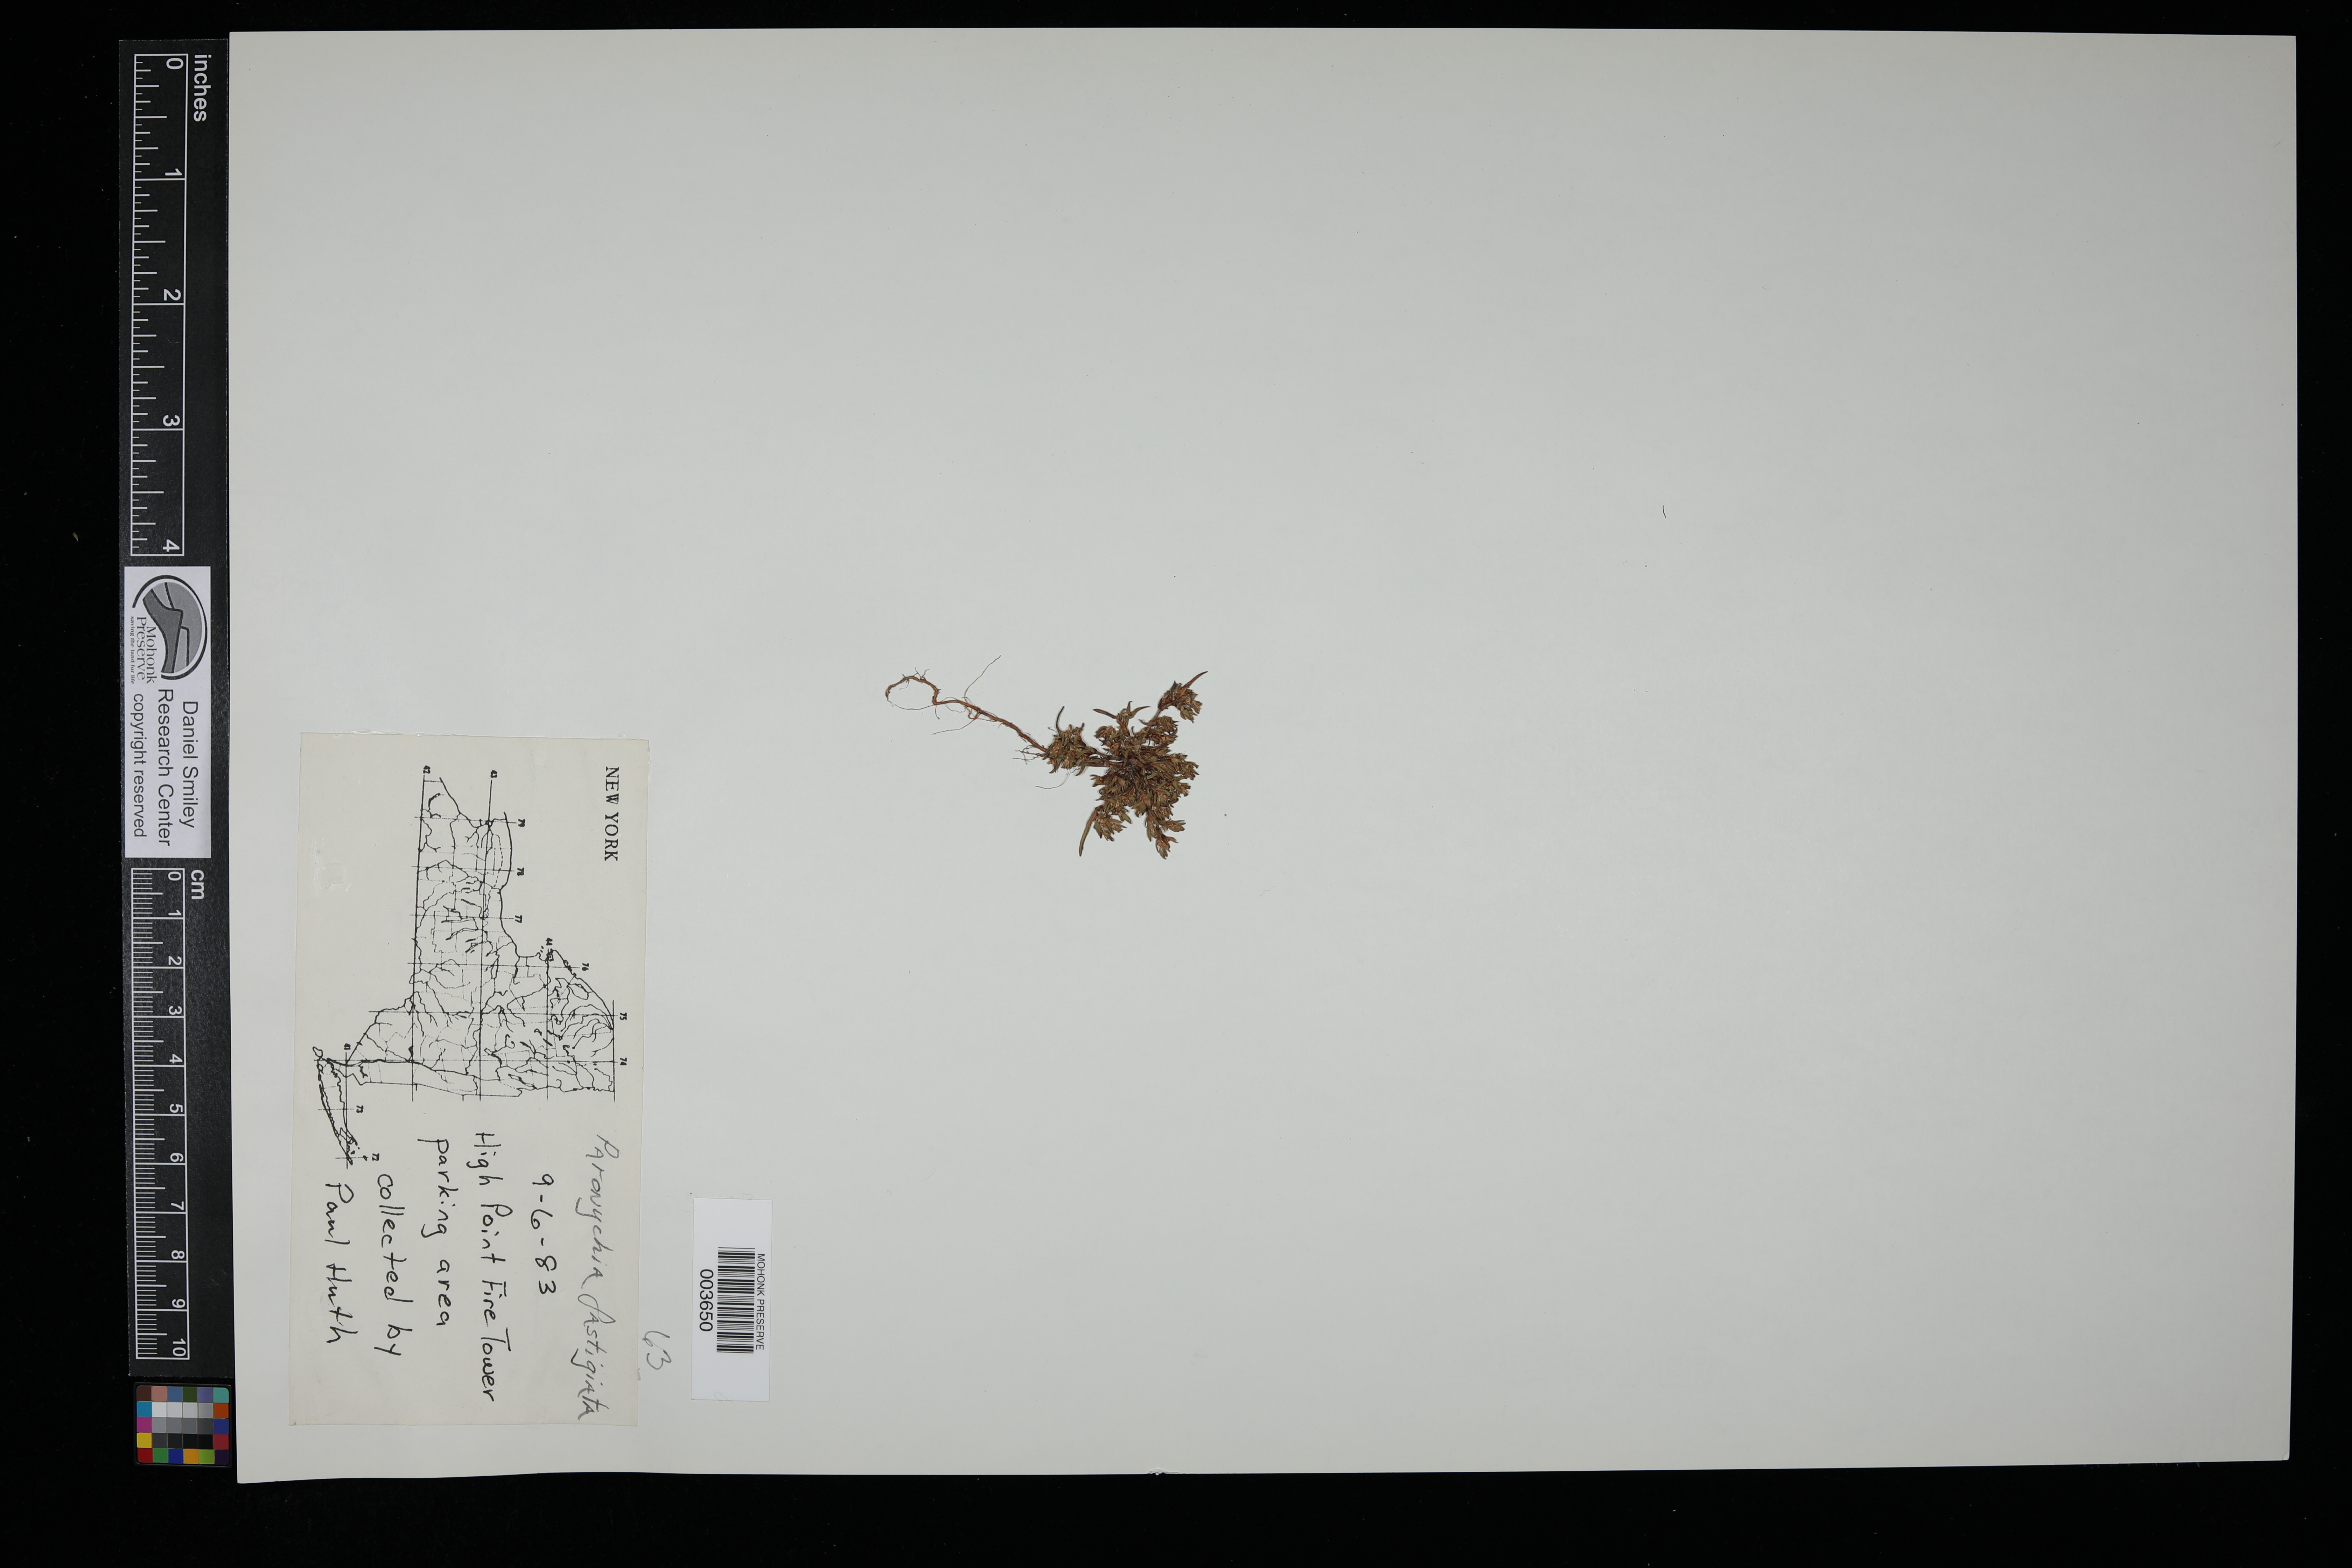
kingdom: Plantae
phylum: Tracheophyta
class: Magnoliopsida
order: Caryophyllales
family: Caryophyllaceae
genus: Paronychia
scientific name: Paronychia fastigiata
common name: Branching forked whitlow-wort
